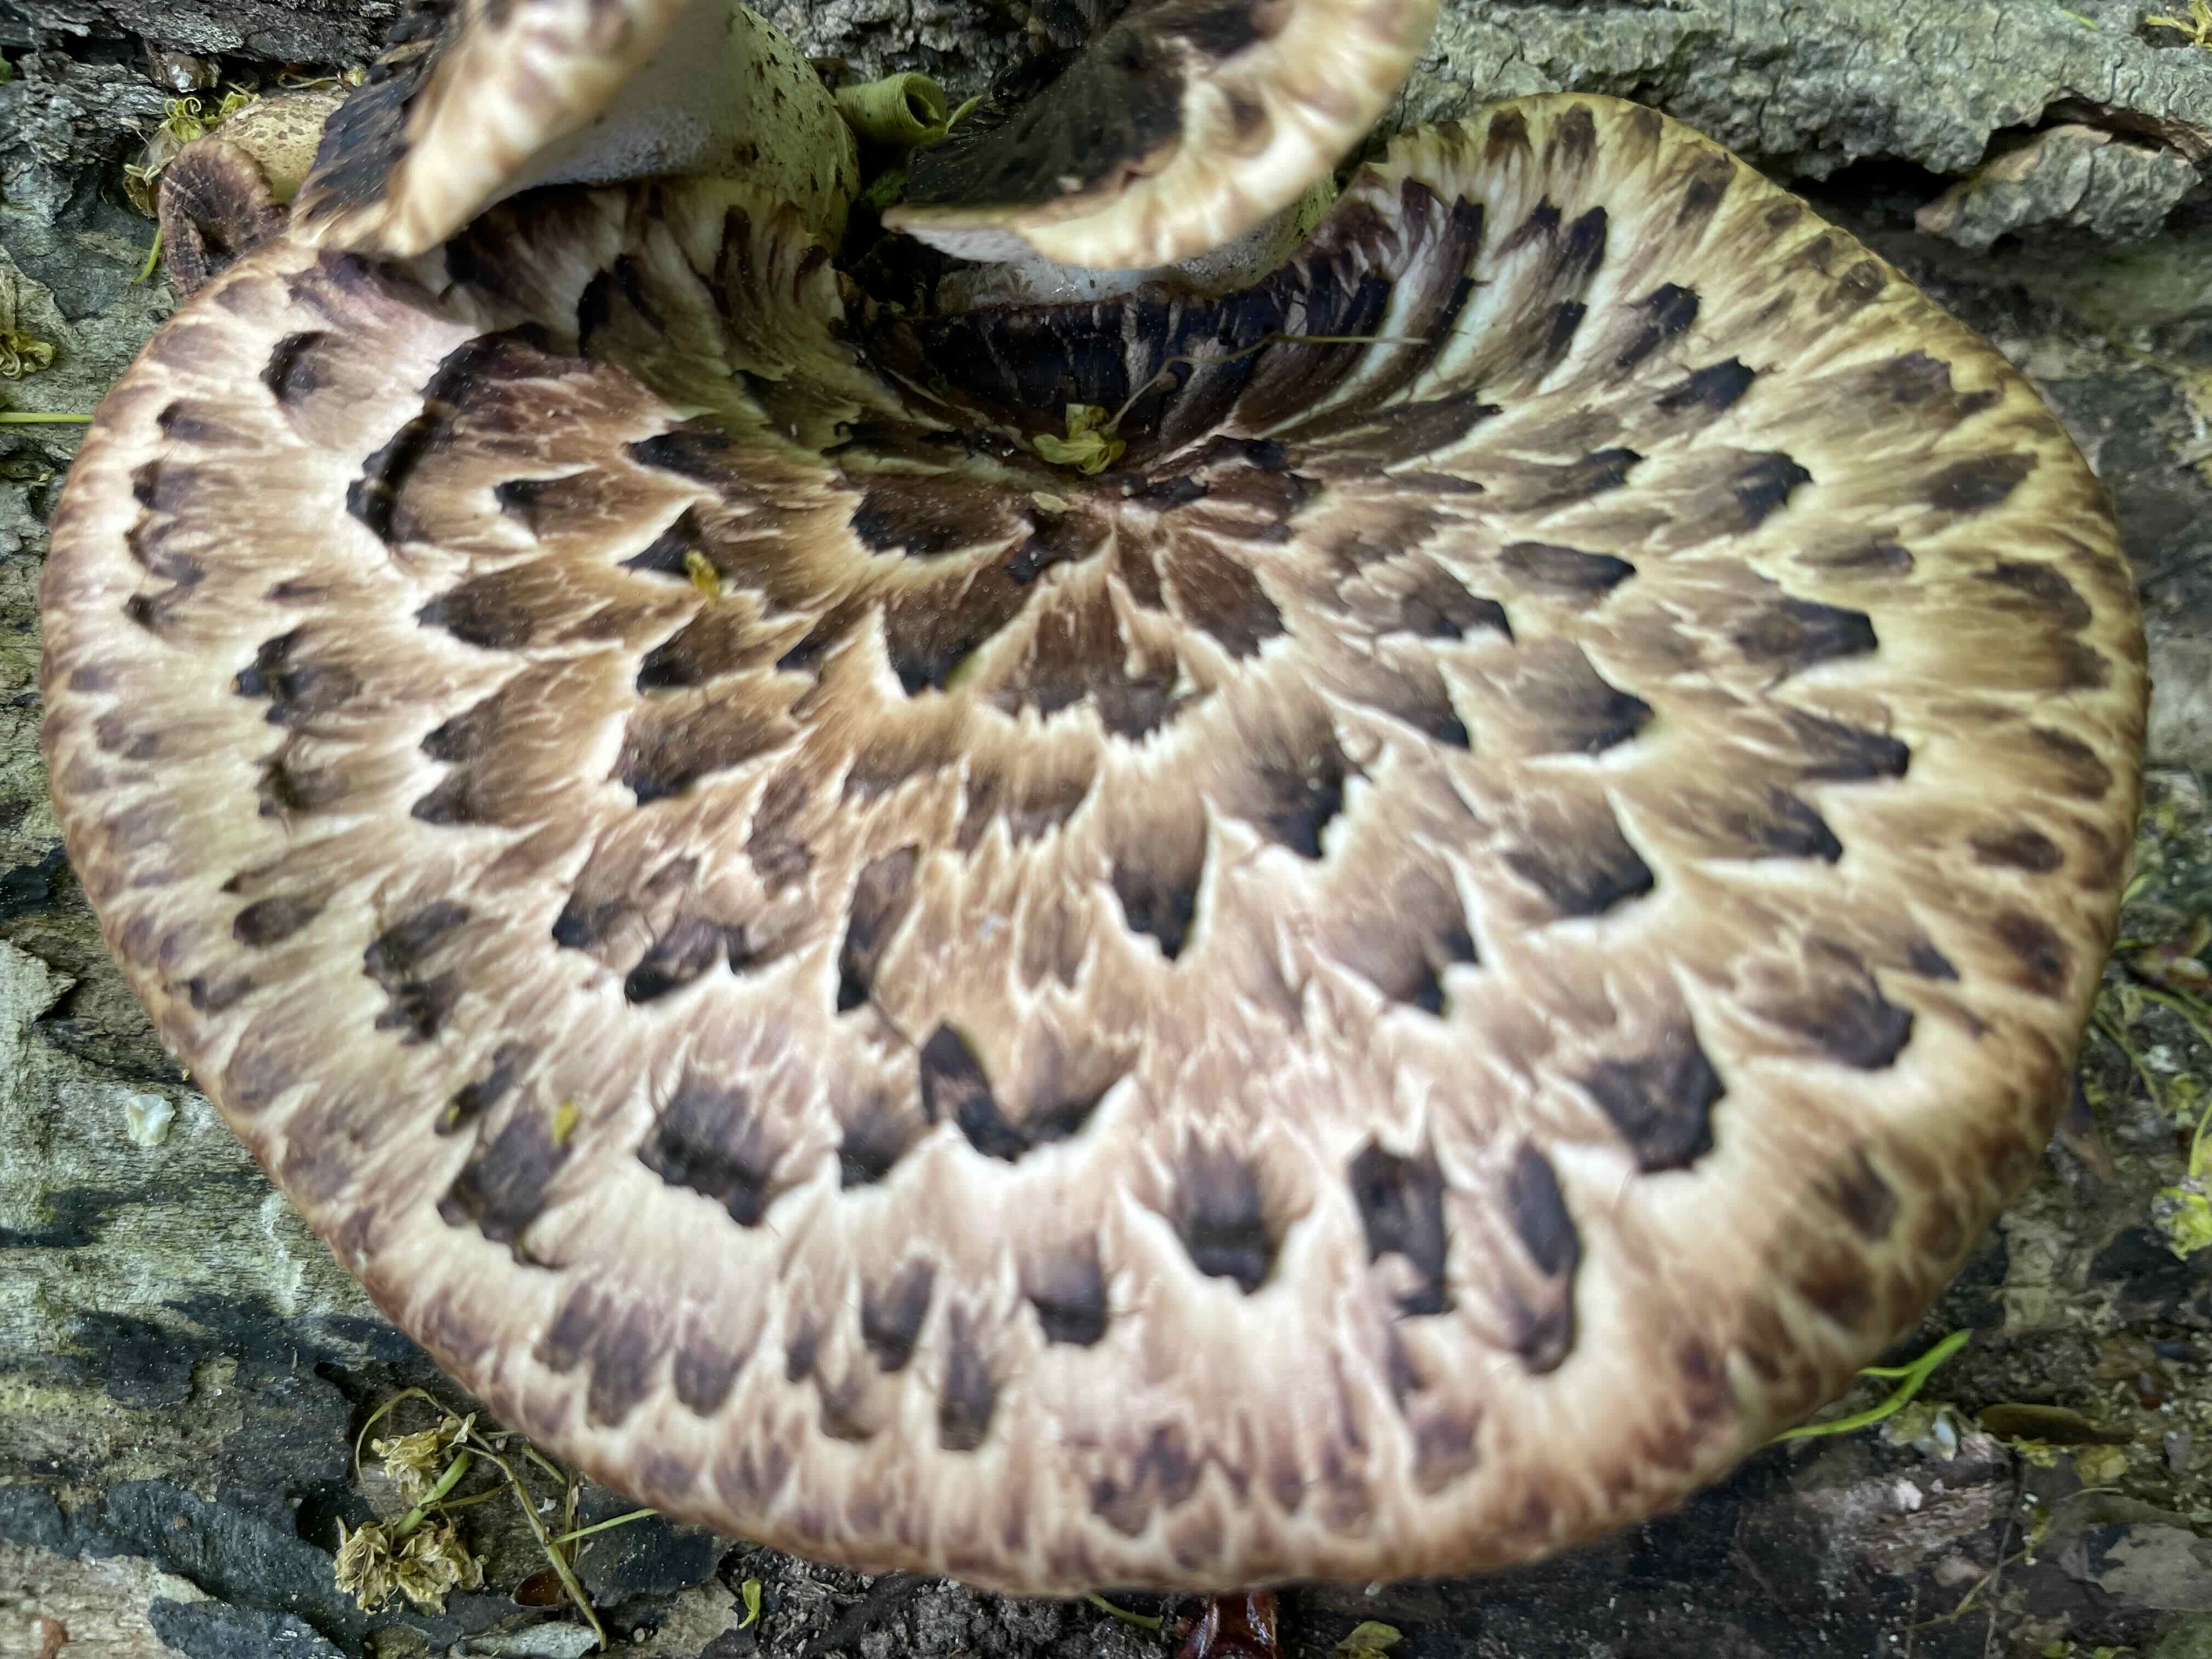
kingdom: Fungi
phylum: Basidiomycota
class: Agaricomycetes
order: Polyporales
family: Polyporaceae
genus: Cerioporus
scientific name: Cerioporus squamosus
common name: skællet stilkporesvamp
